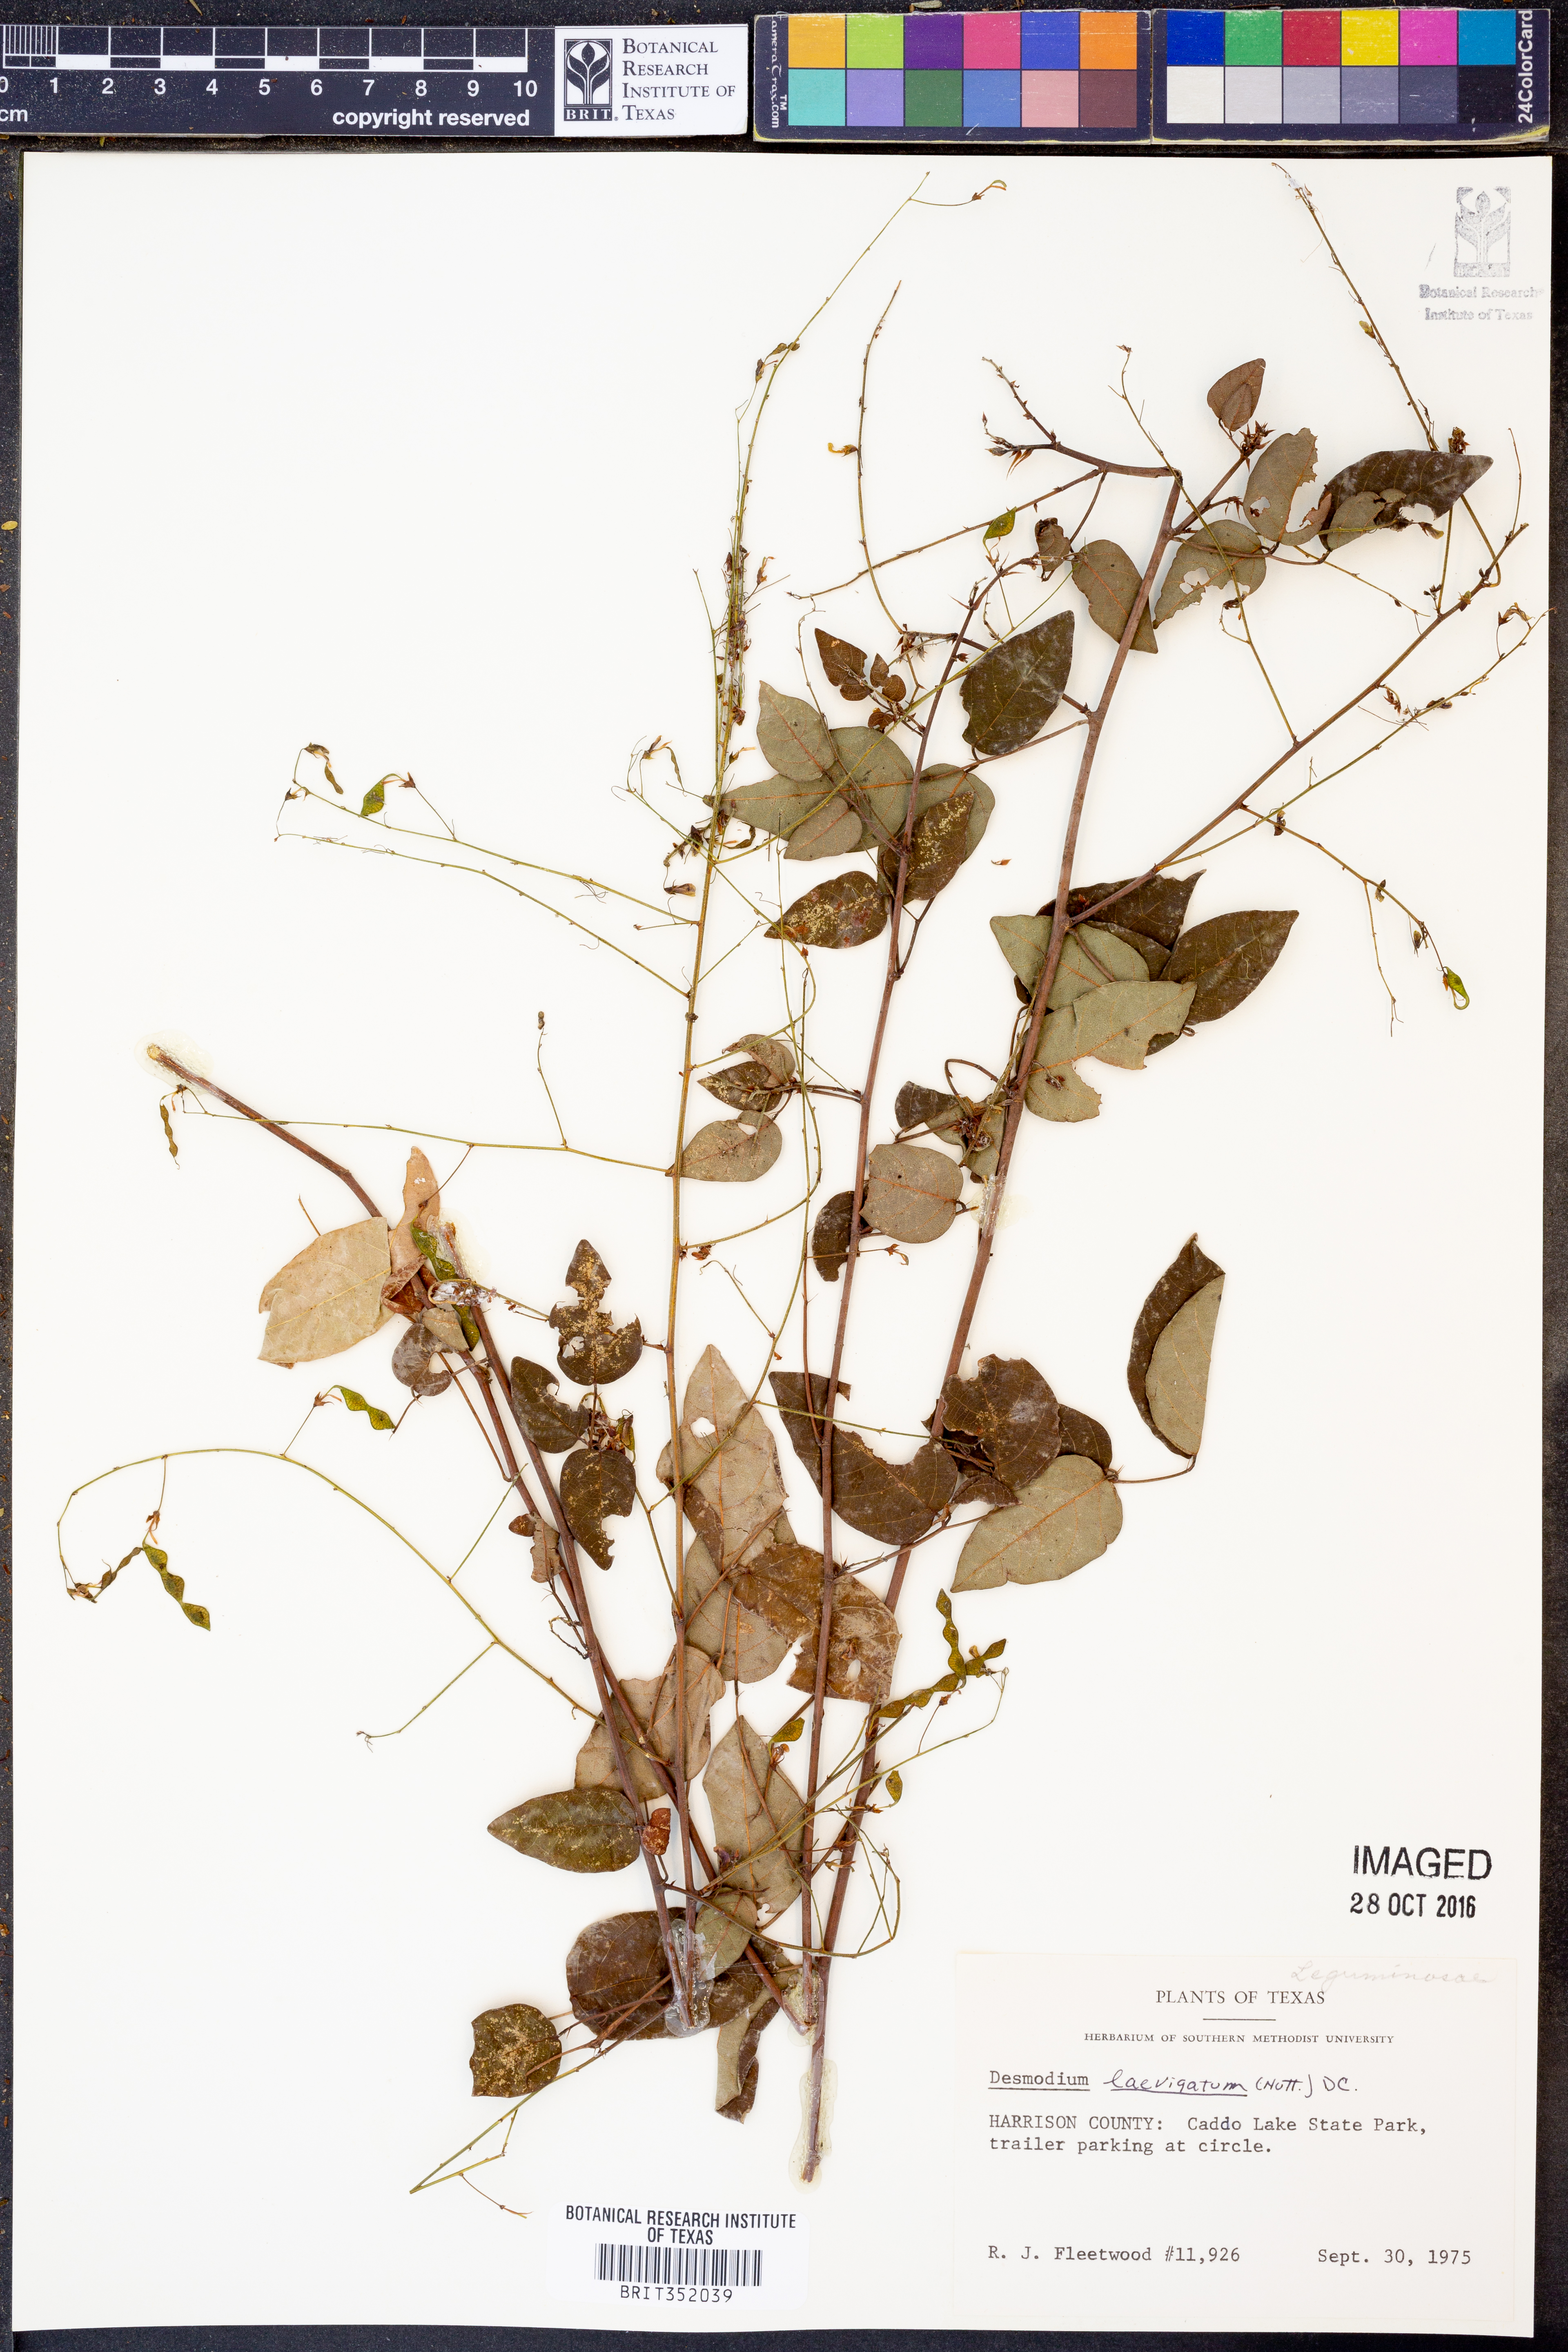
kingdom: Plantae
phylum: Tracheophyta
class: Magnoliopsida
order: Fabales
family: Fabaceae
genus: Desmodium
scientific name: Desmodium laevigatum
